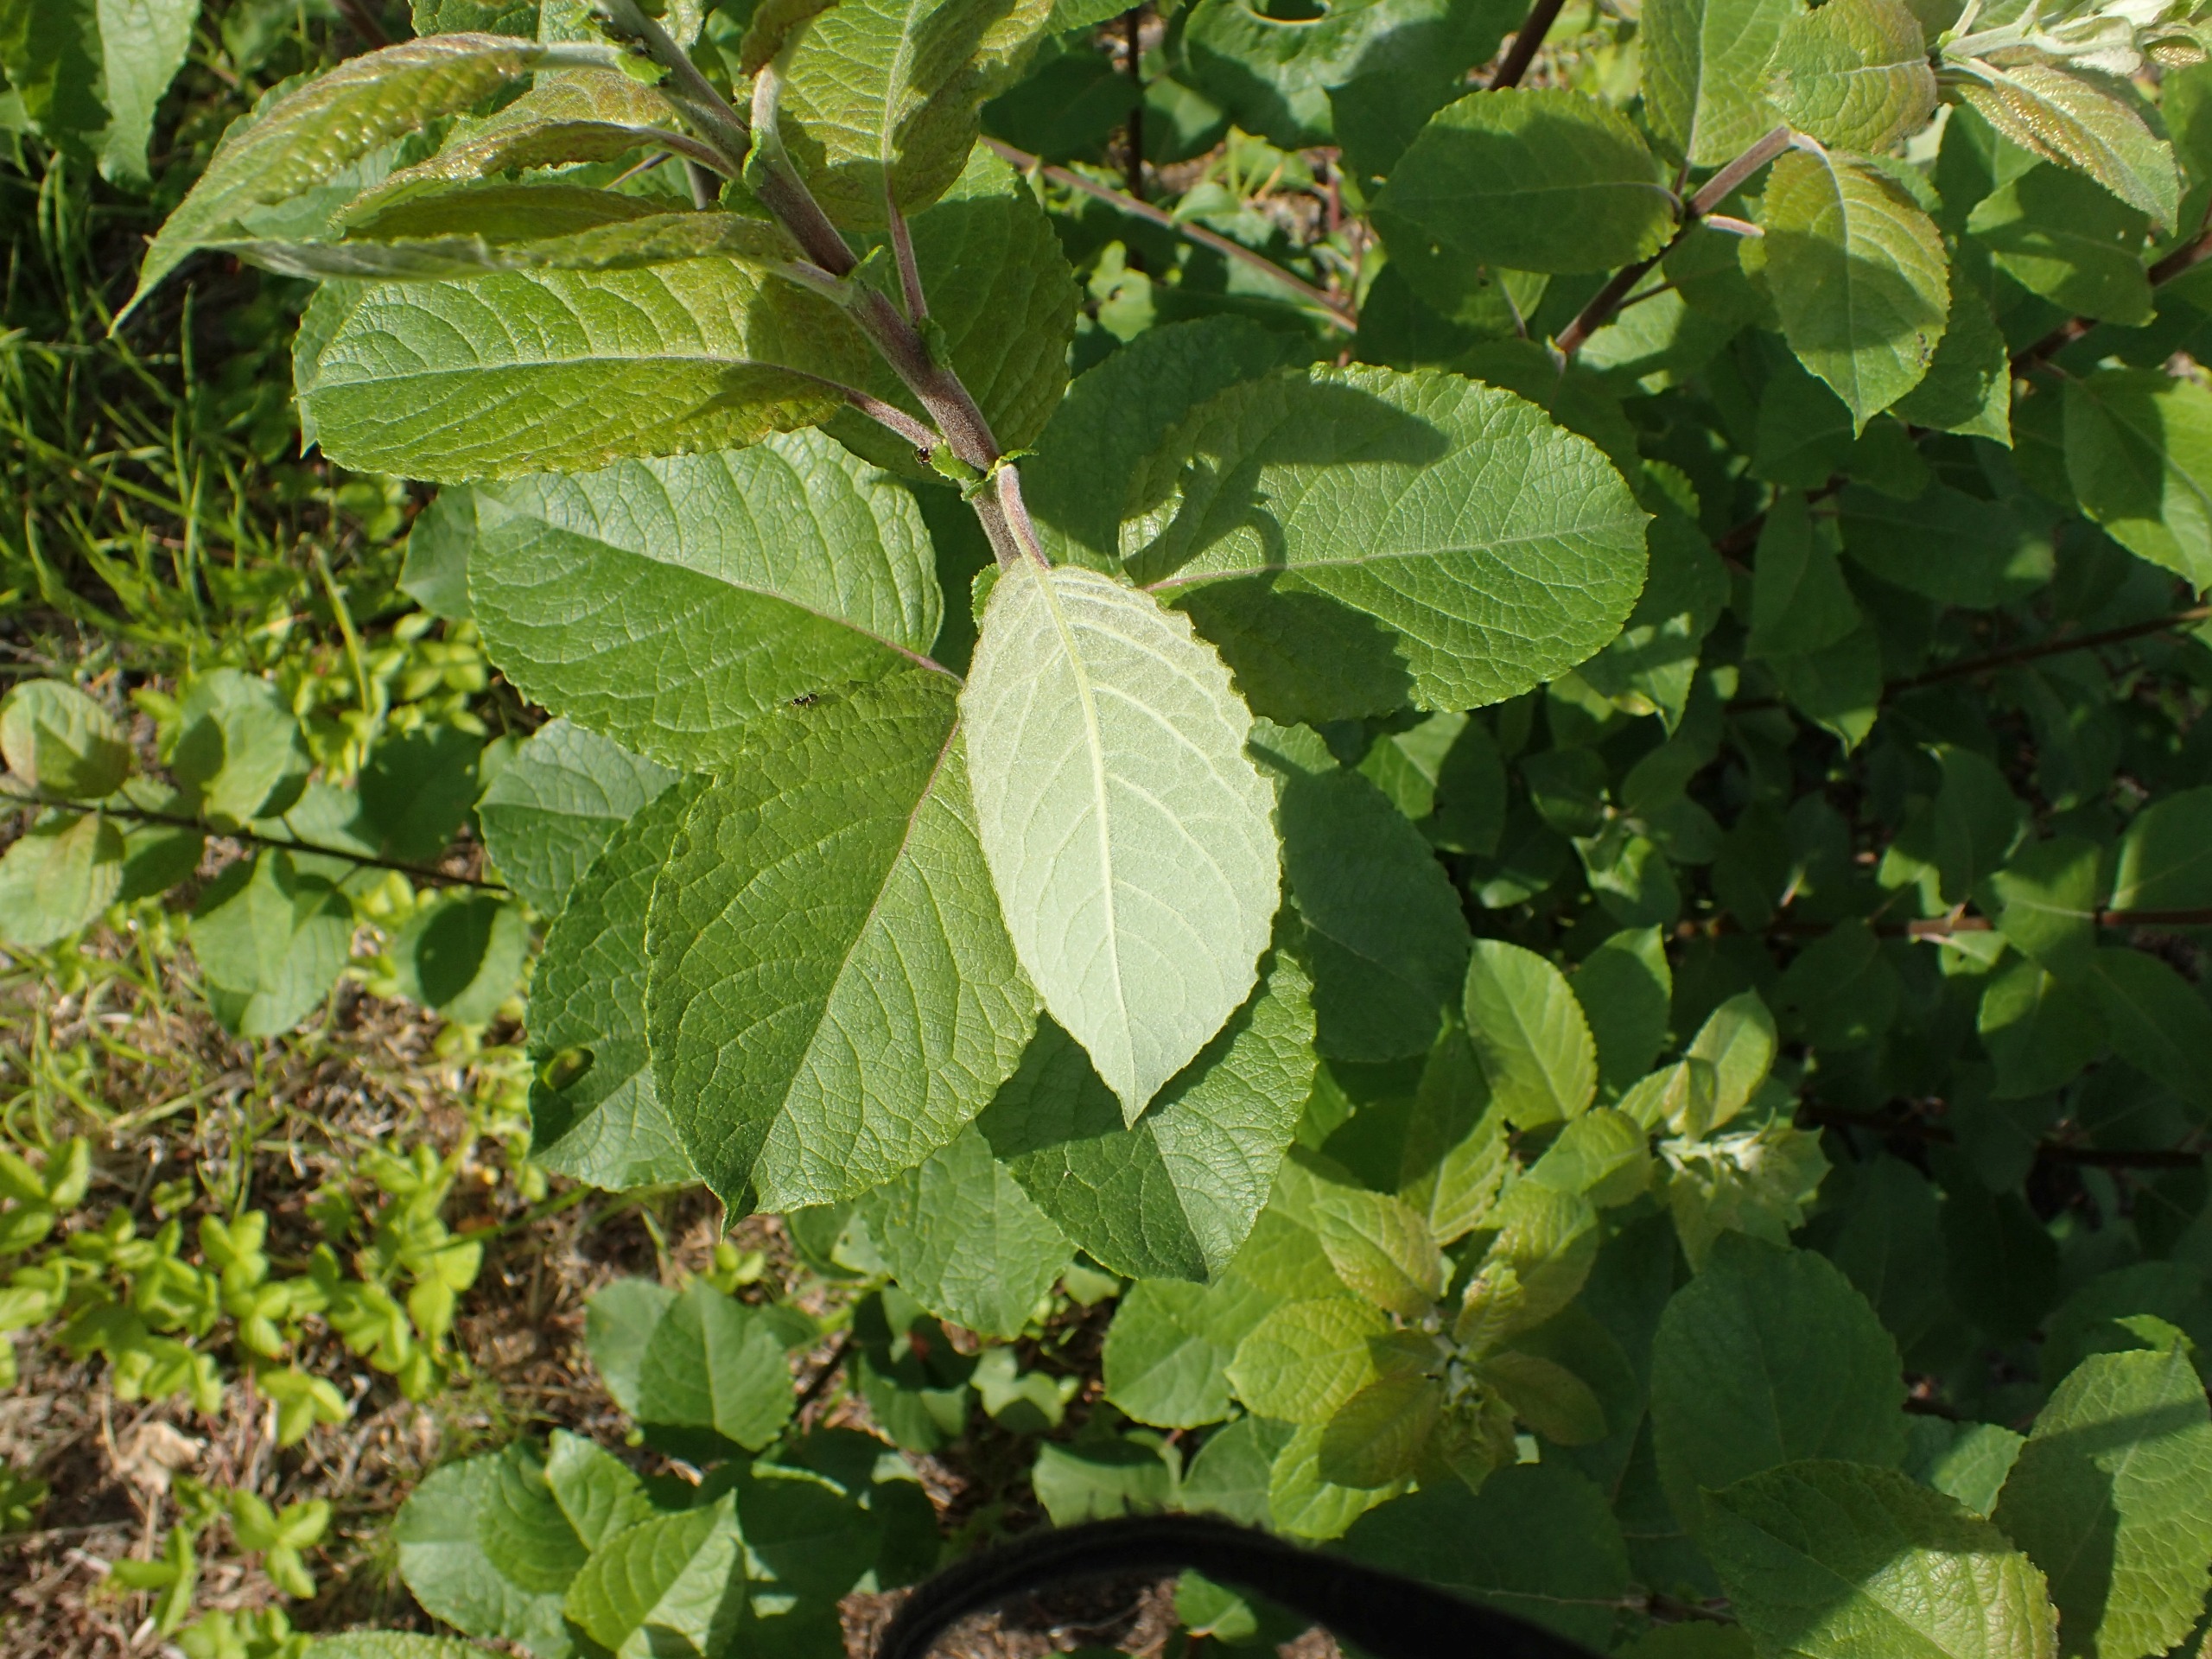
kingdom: Plantae
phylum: Tracheophyta
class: Magnoliopsida
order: Malpighiales
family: Salicaceae
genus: Salix
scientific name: Salix caprea
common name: Selje-pil
